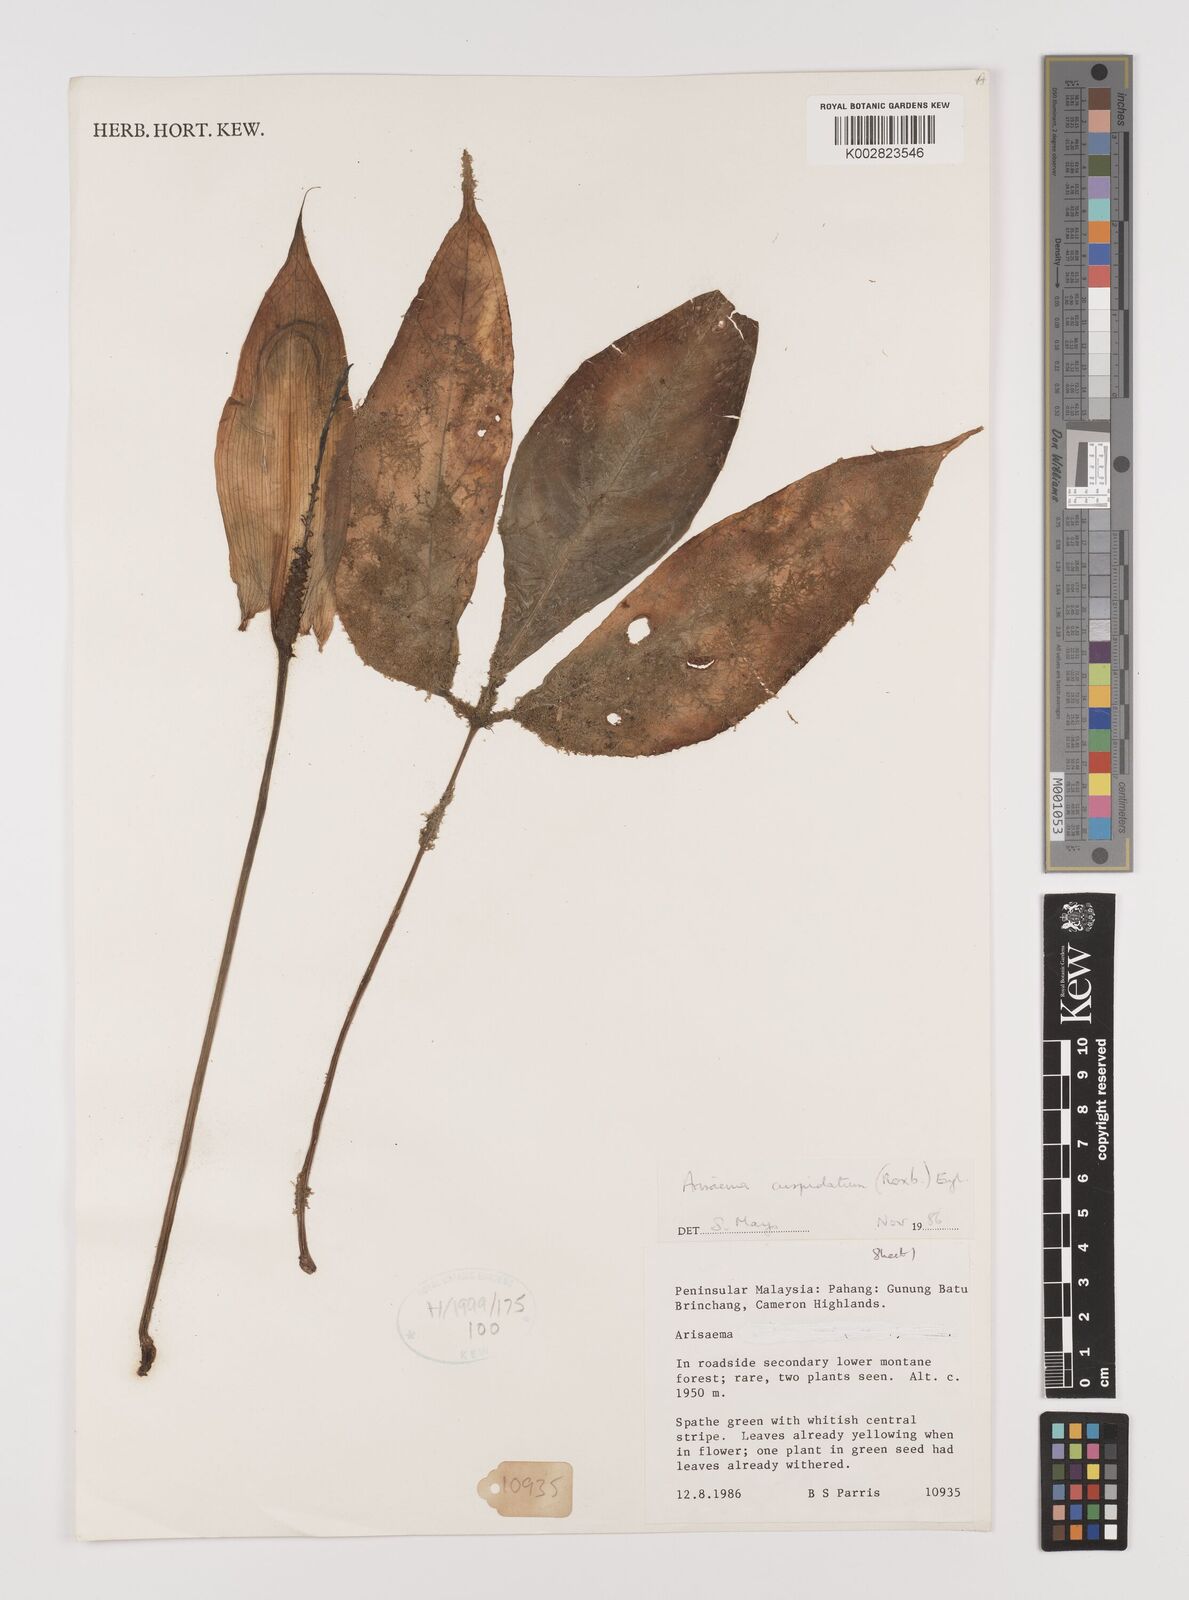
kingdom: Plantae
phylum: Tracheophyta
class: Liliopsida
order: Alismatales
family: Araceae
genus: Arisaema
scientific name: Arisaema roxburghii
